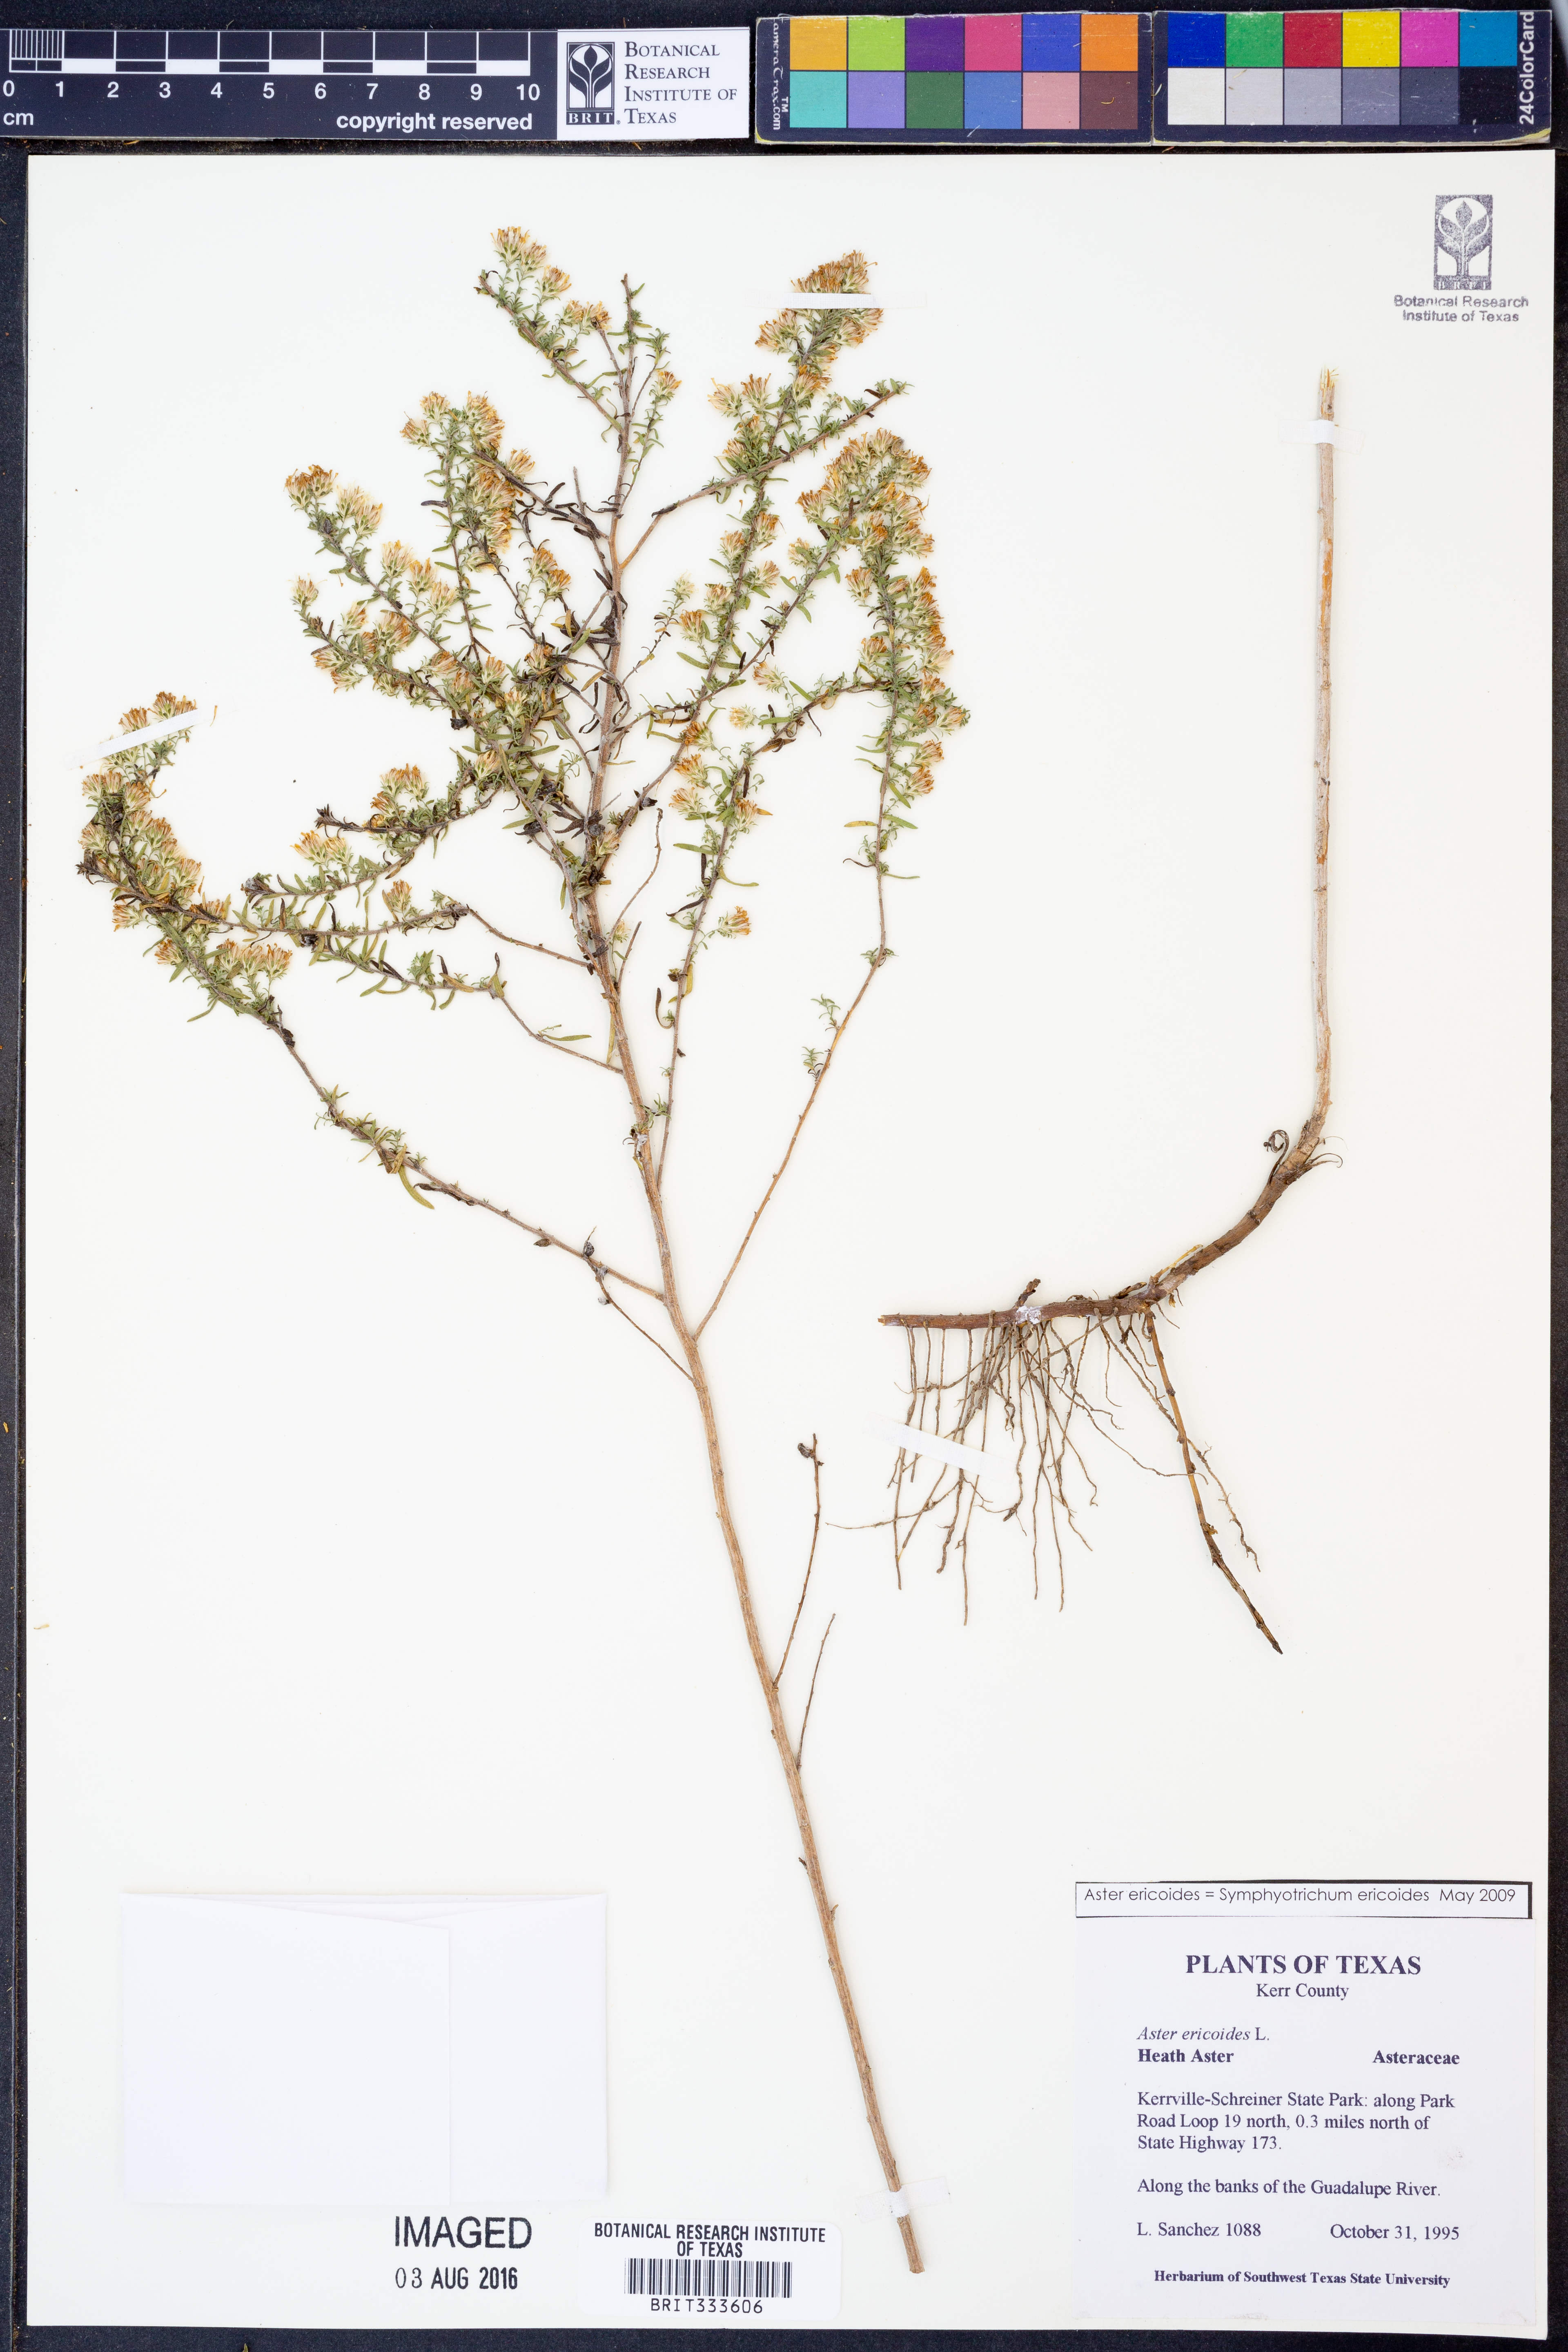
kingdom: Plantae
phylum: Tracheophyta
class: Magnoliopsida
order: Asterales
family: Asteraceae
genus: Symphyotrichum
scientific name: Symphyotrichum ericoides
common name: Heath aster
